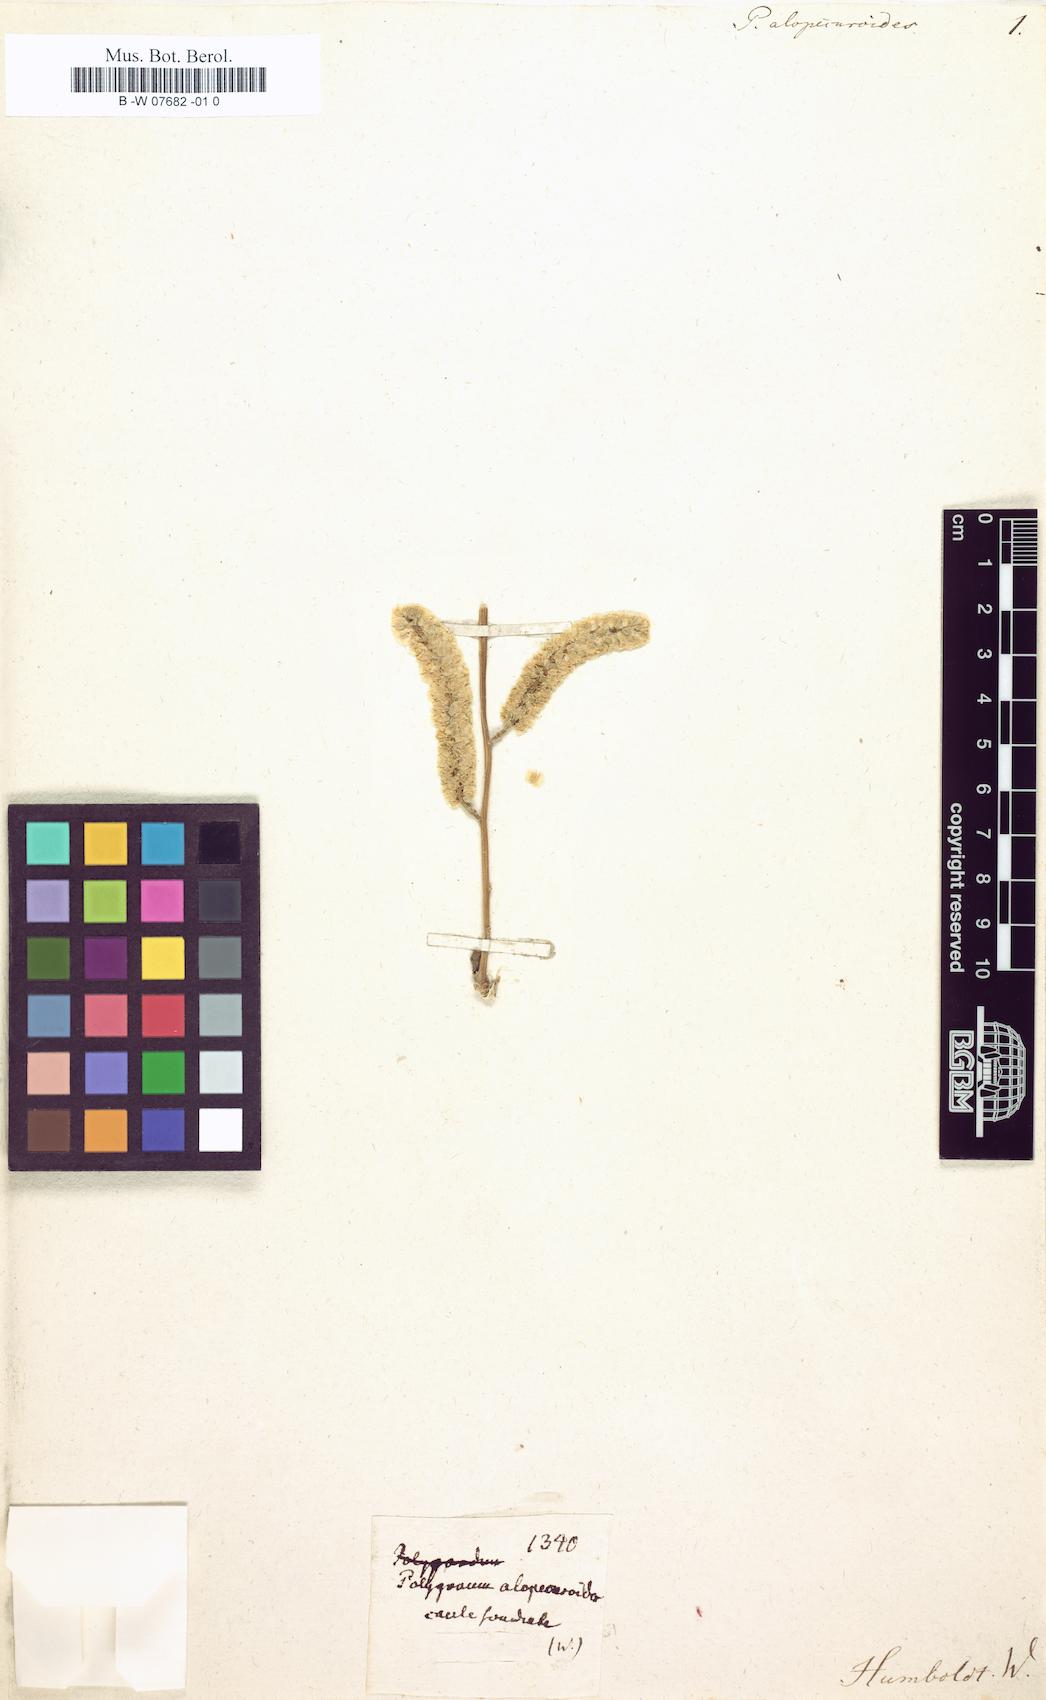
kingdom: Plantae
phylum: Tracheophyta
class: Magnoliopsida
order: Caryophyllales
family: Polygonaceae
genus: Bistorta
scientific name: Bistorta alopecuroides
